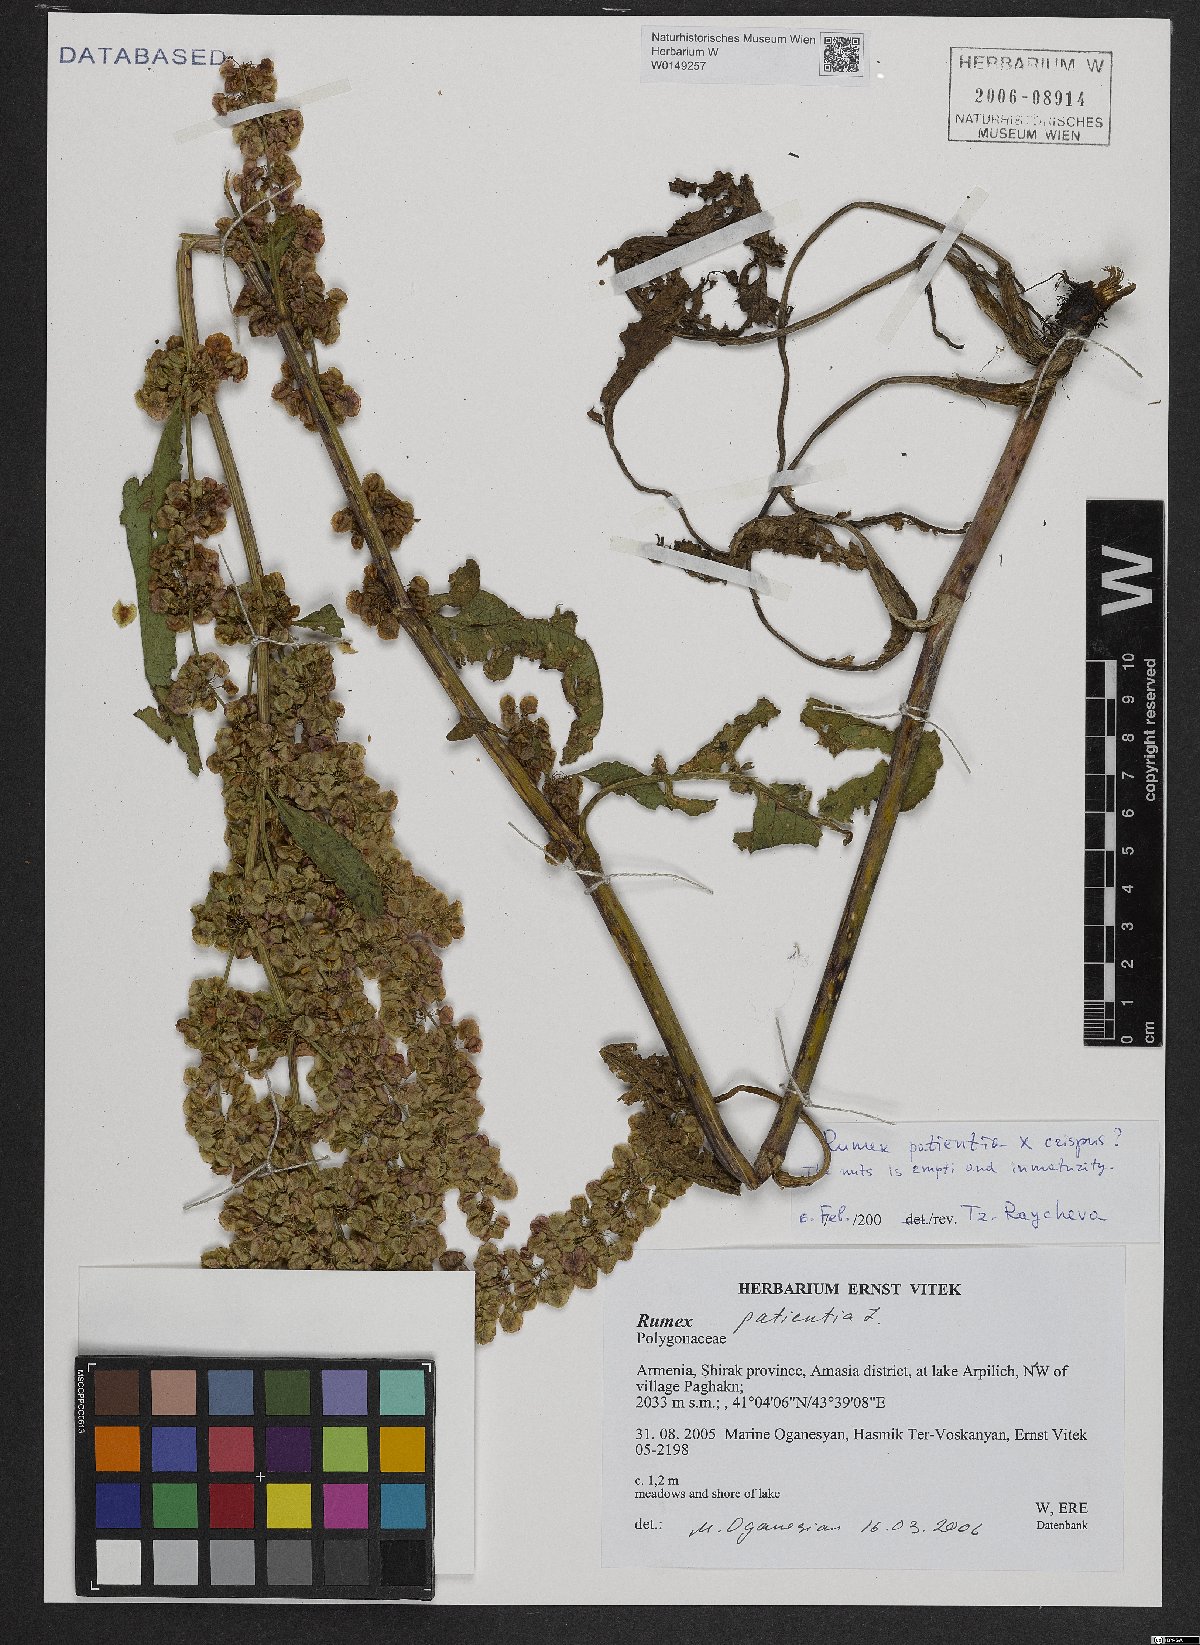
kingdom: Plantae
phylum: Tracheophyta
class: Magnoliopsida
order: Caryophyllales
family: Polygonaceae
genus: Rumex
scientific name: Rumex patientia
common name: Patience dock
